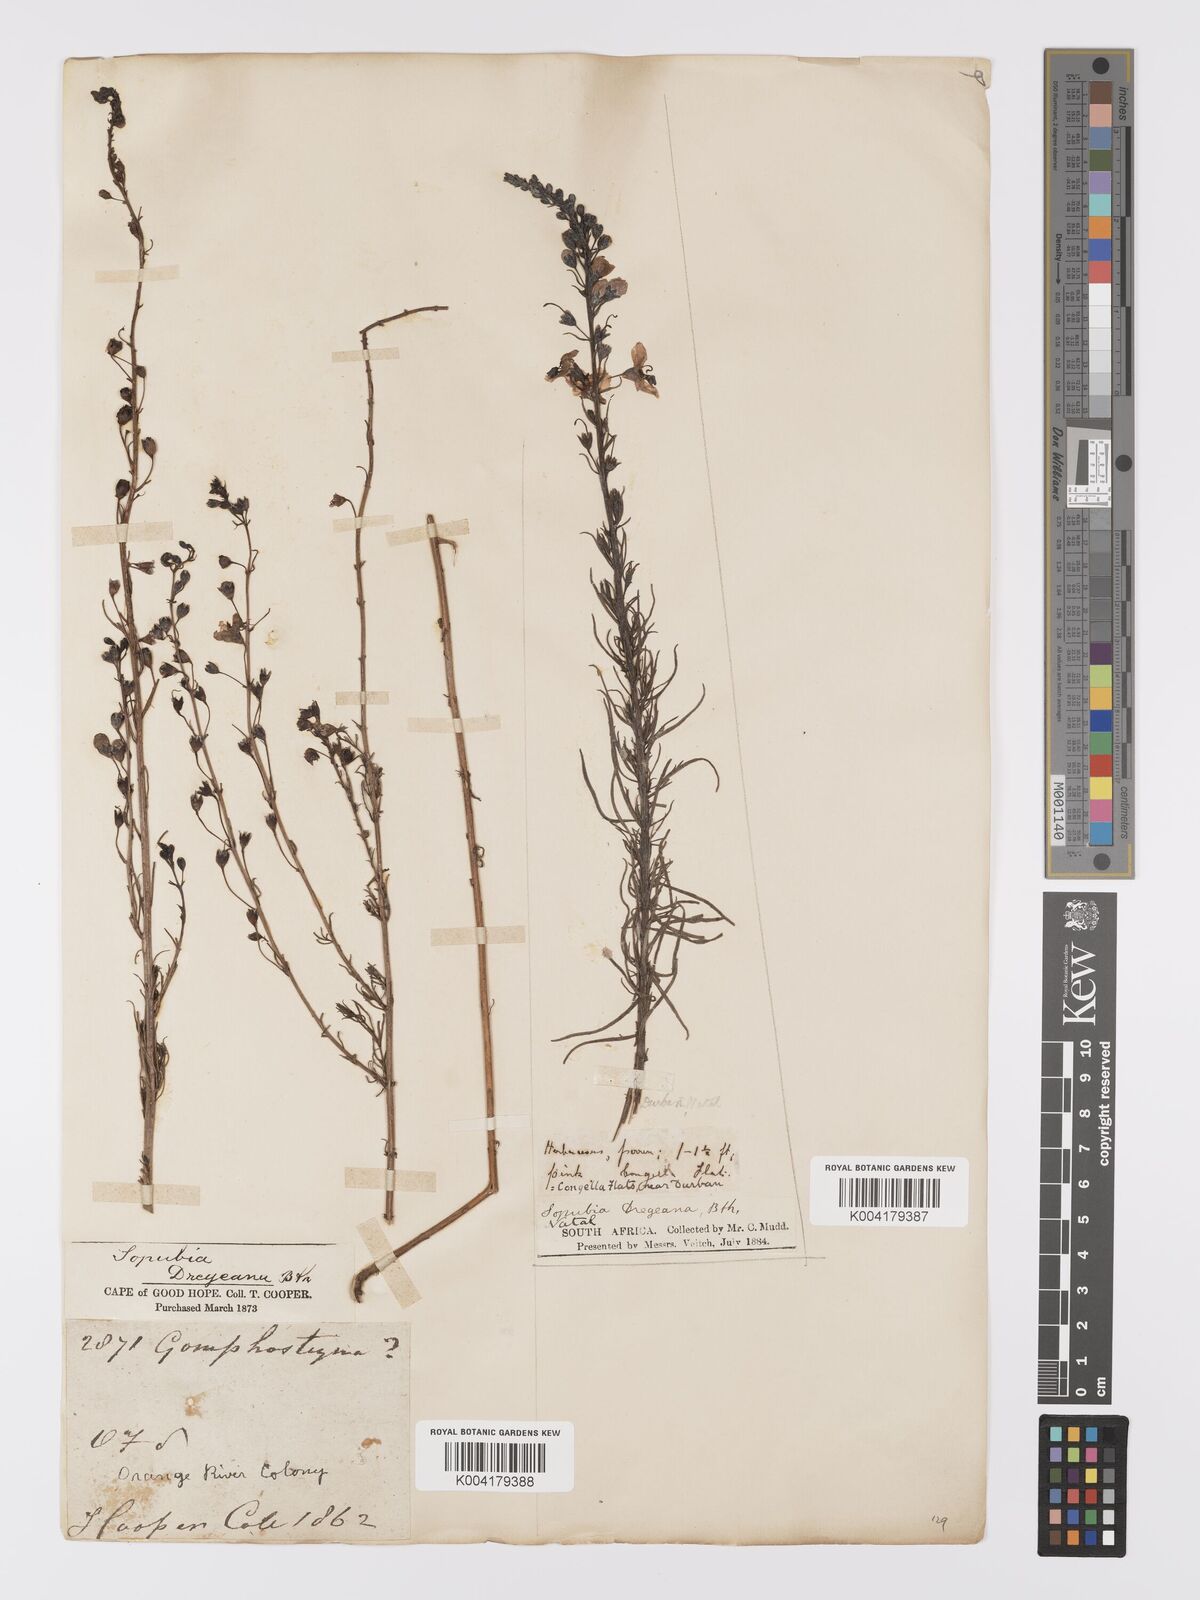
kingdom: Plantae
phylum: Tracheophyta
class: Magnoliopsida
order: Lamiales
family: Orobanchaceae
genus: Sopubia
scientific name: Sopubia simplex
